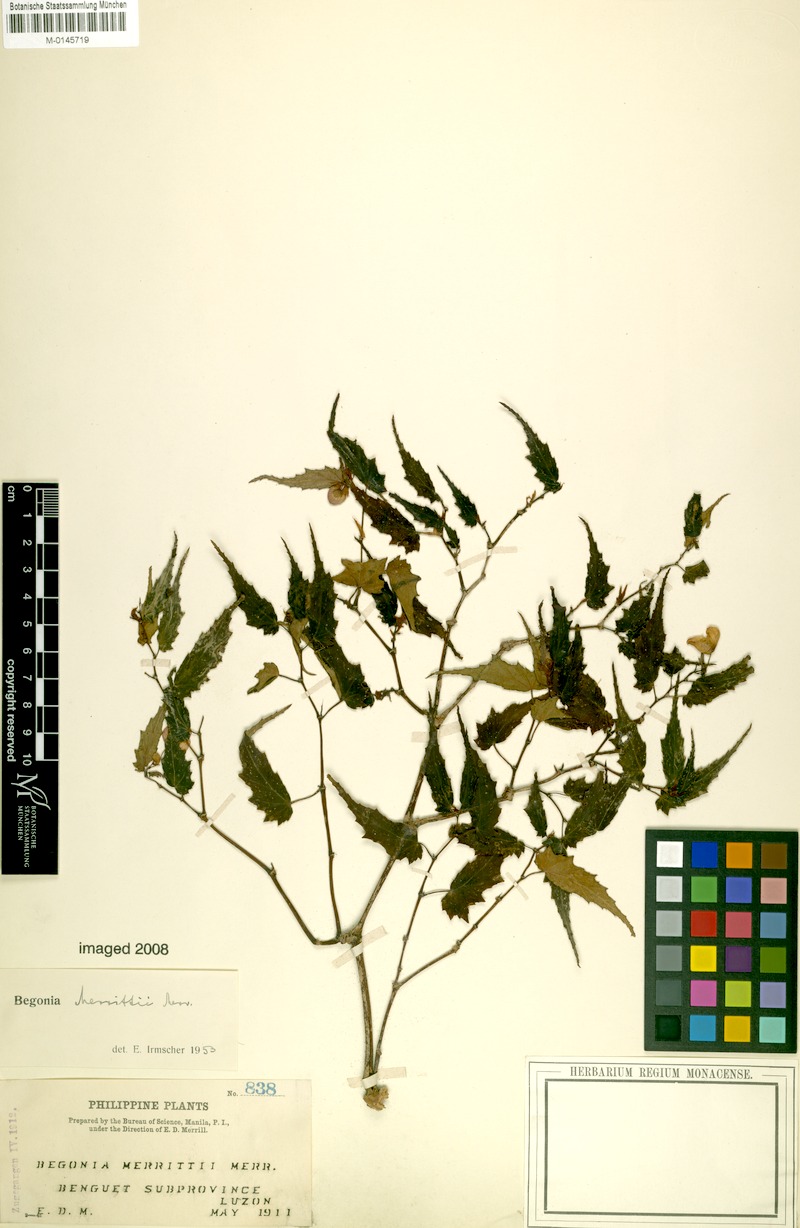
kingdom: Plantae
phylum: Tracheophyta
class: Magnoliopsida
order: Cucurbitales
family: Begoniaceae
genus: Begonia
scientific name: Begonia merrittii
